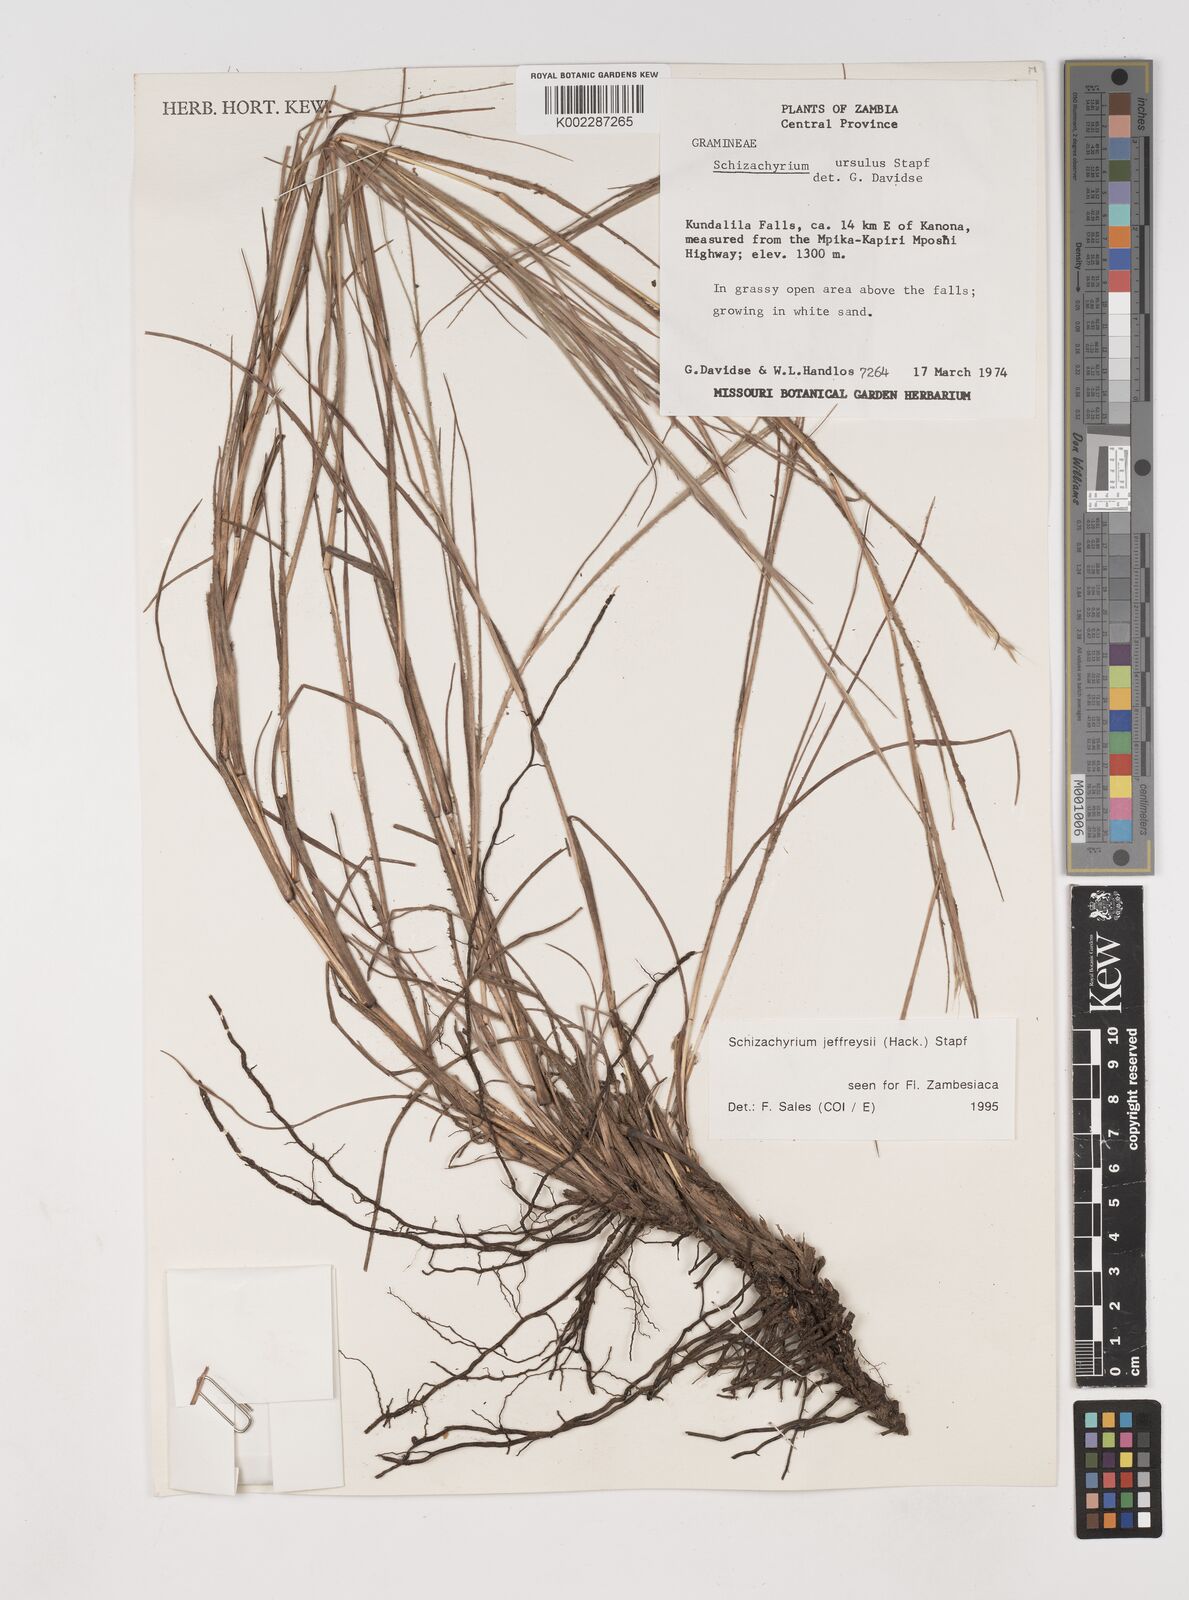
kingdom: Plantae
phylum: Tracheophyta
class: Liliopsida
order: Poales
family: Poaceae
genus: Schizachyrium
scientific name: Schizachyrium jeffreysii
